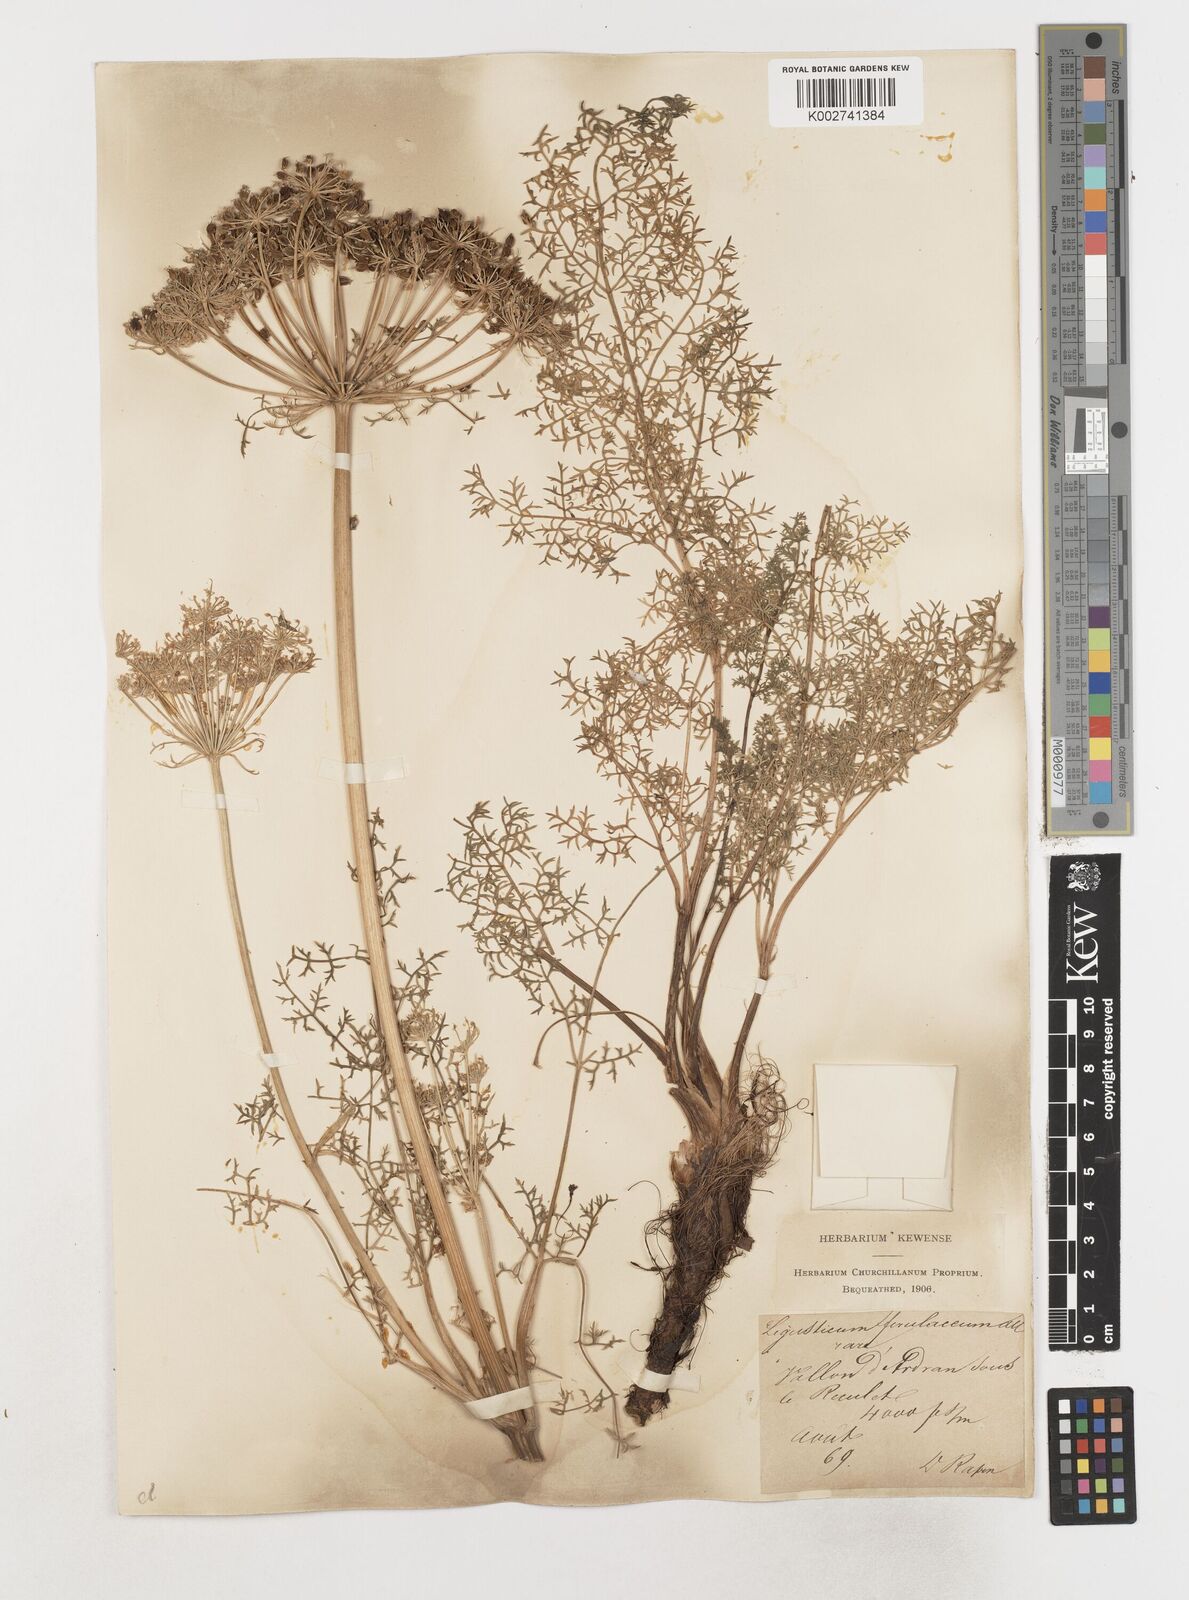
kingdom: Plantae
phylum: Tracheophyta
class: Magnoliopsida
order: Apiales
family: Apiaceae
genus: Coristospermum
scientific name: Coristospermum ferulaceum
